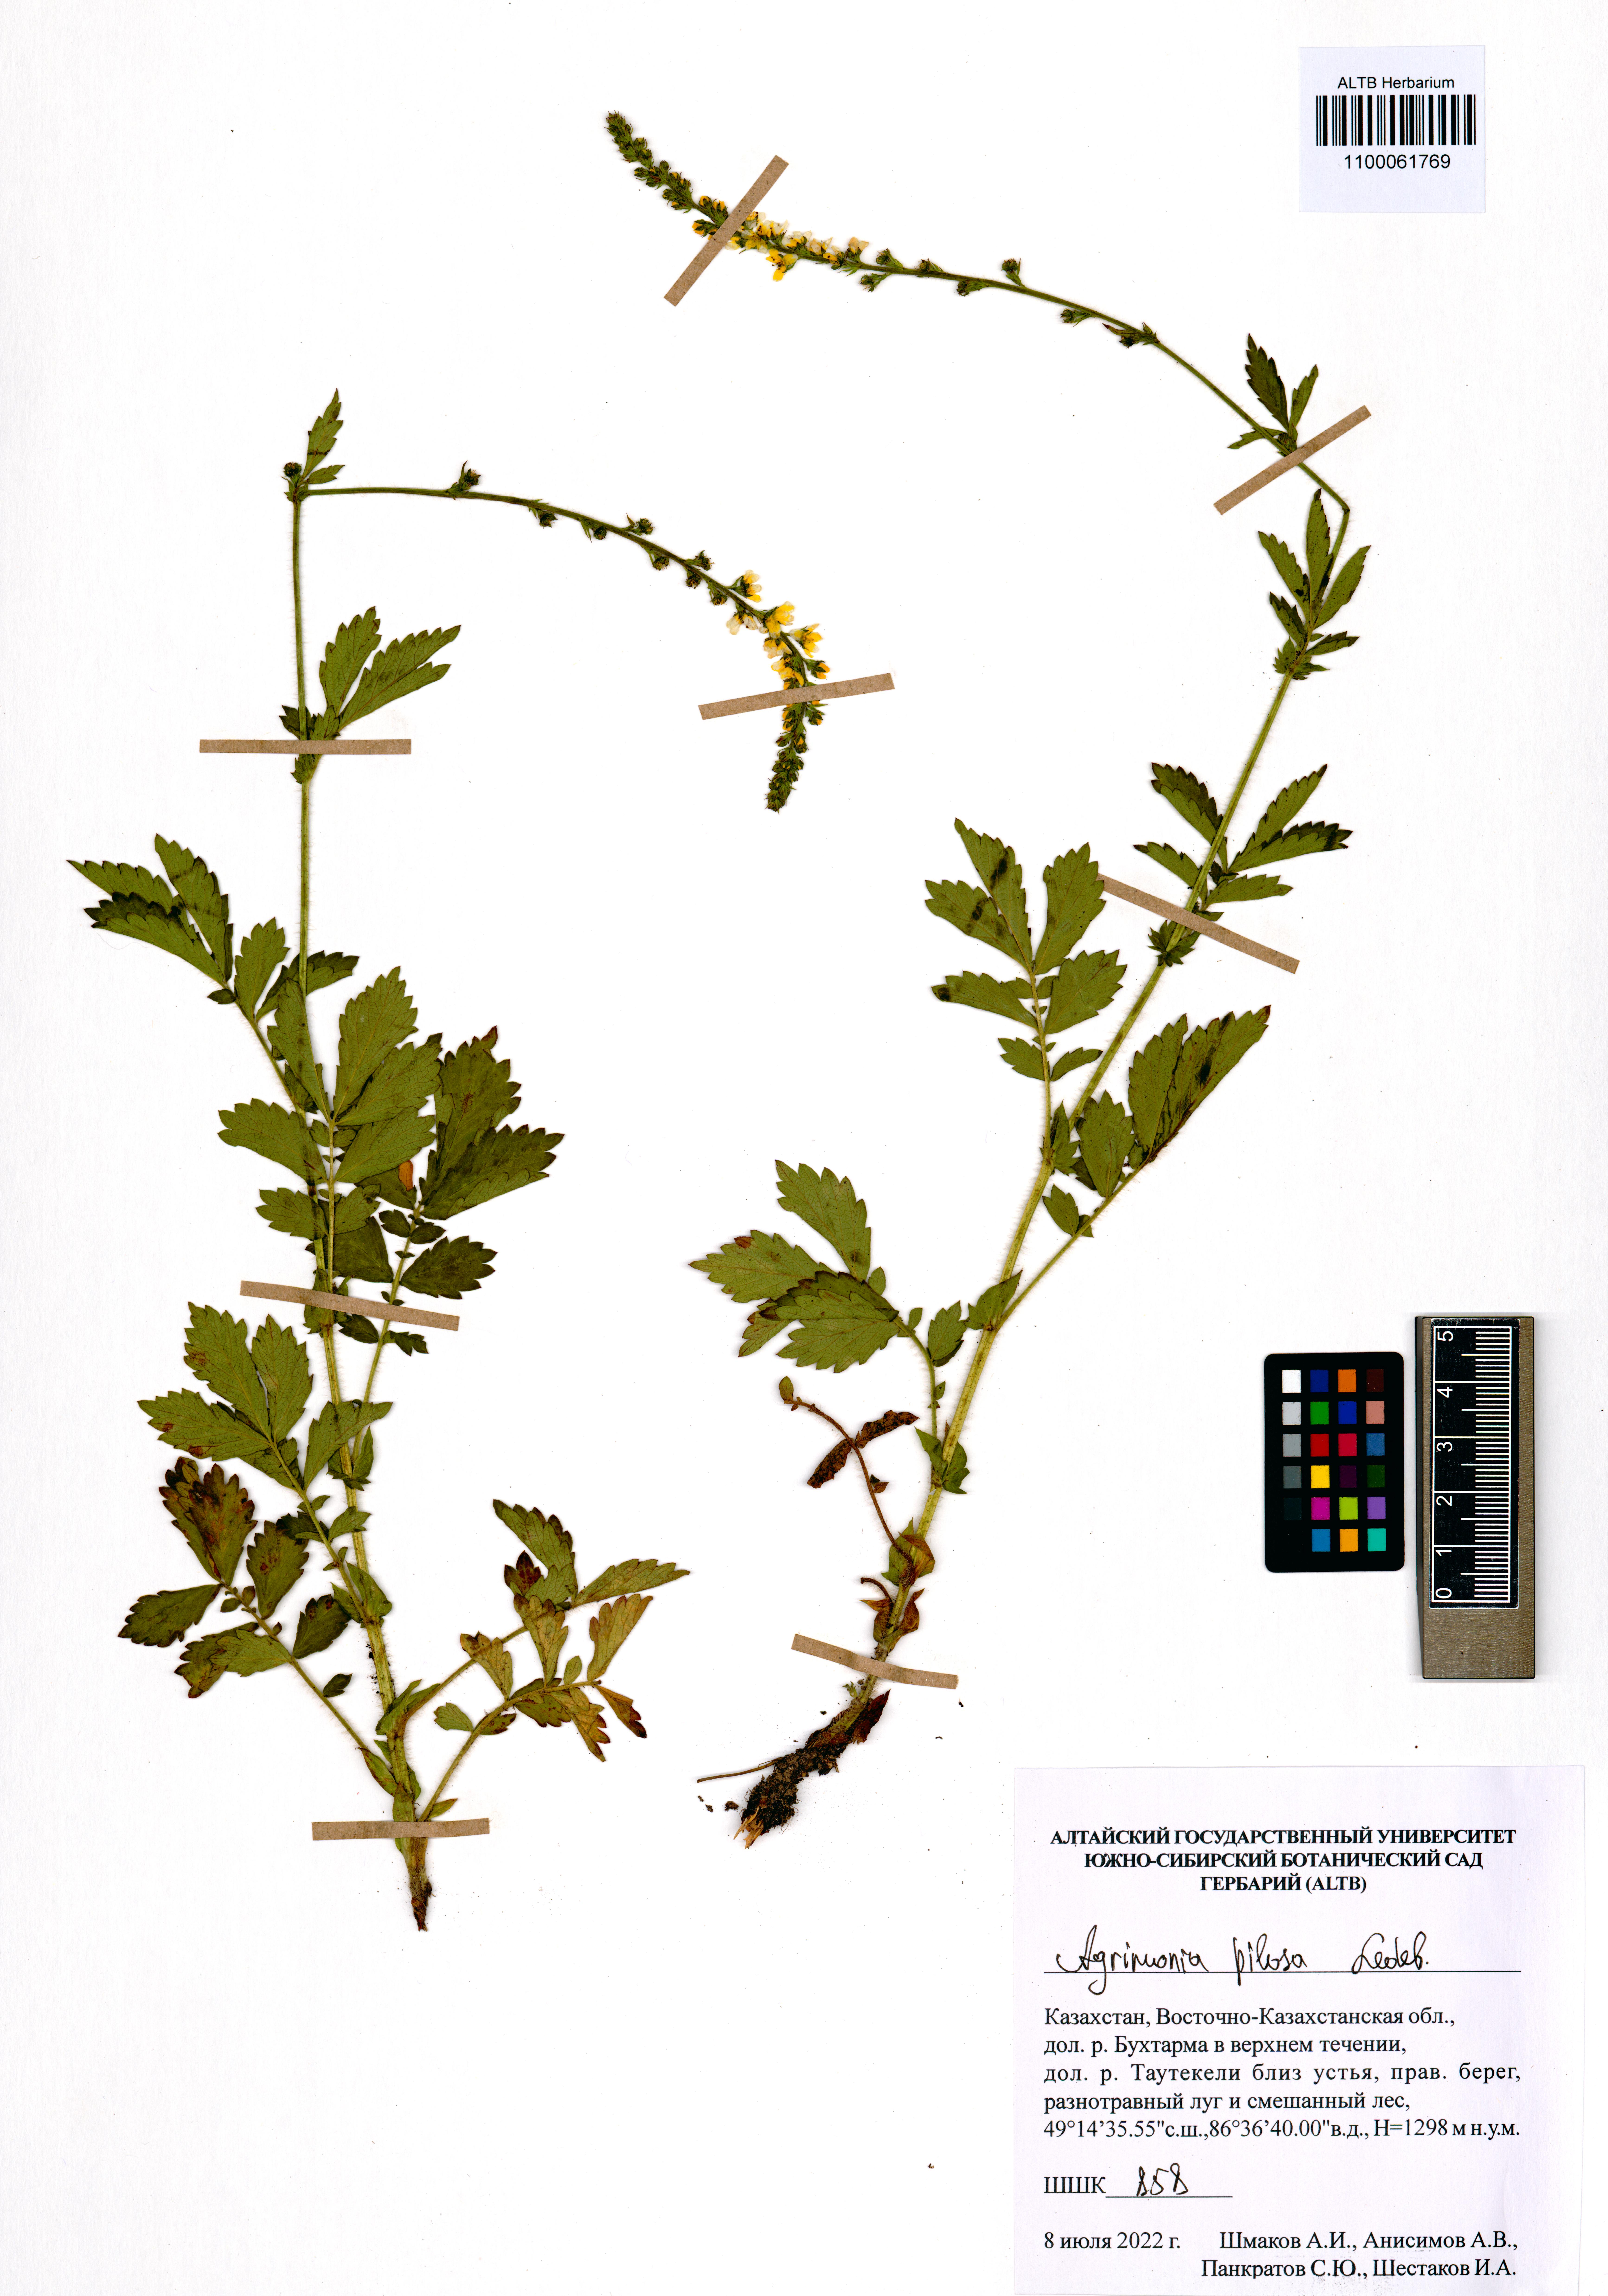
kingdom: Plantae
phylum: Tracheophyta
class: Magnoliopsida
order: Rosales
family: Rosaceae
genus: Agrimonia
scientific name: Agrimonia pilosa
